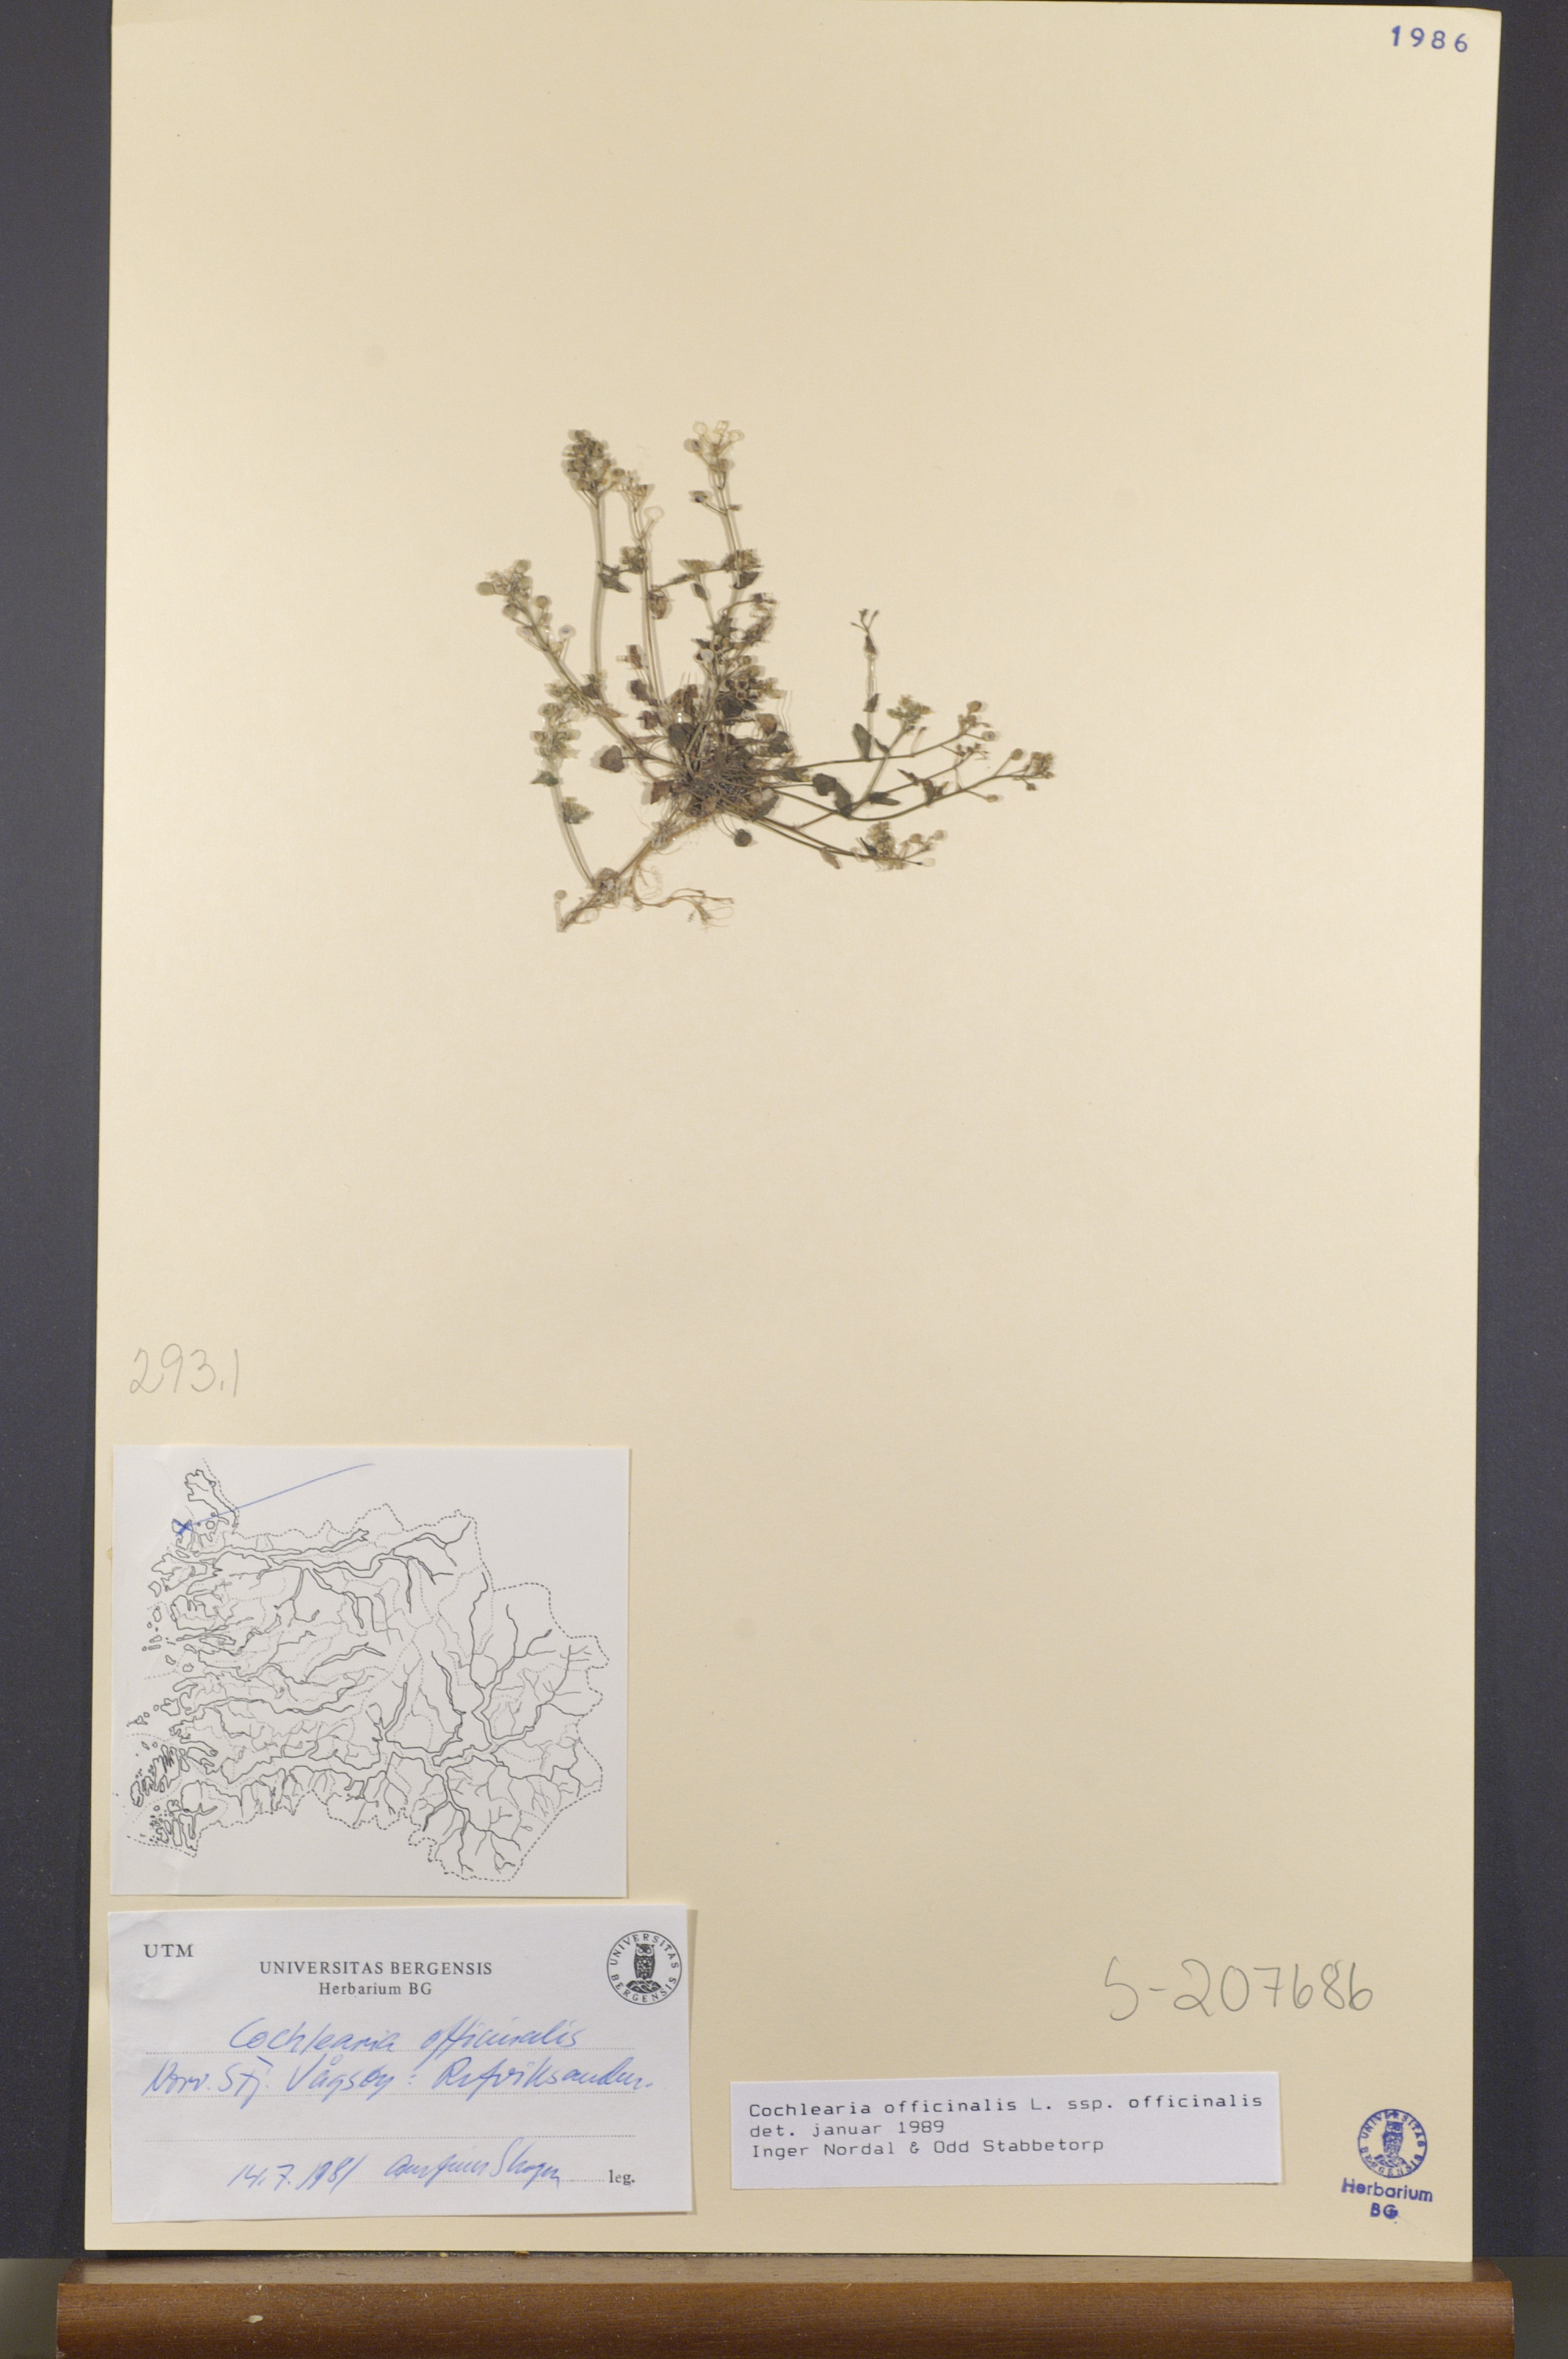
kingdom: Plantae
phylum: Tracheophyta
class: Magnoliopsida
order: Brassicales
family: Brassicaceae
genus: Cochlearia
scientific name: Cochlearia officinalis
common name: Scurvy-grass
